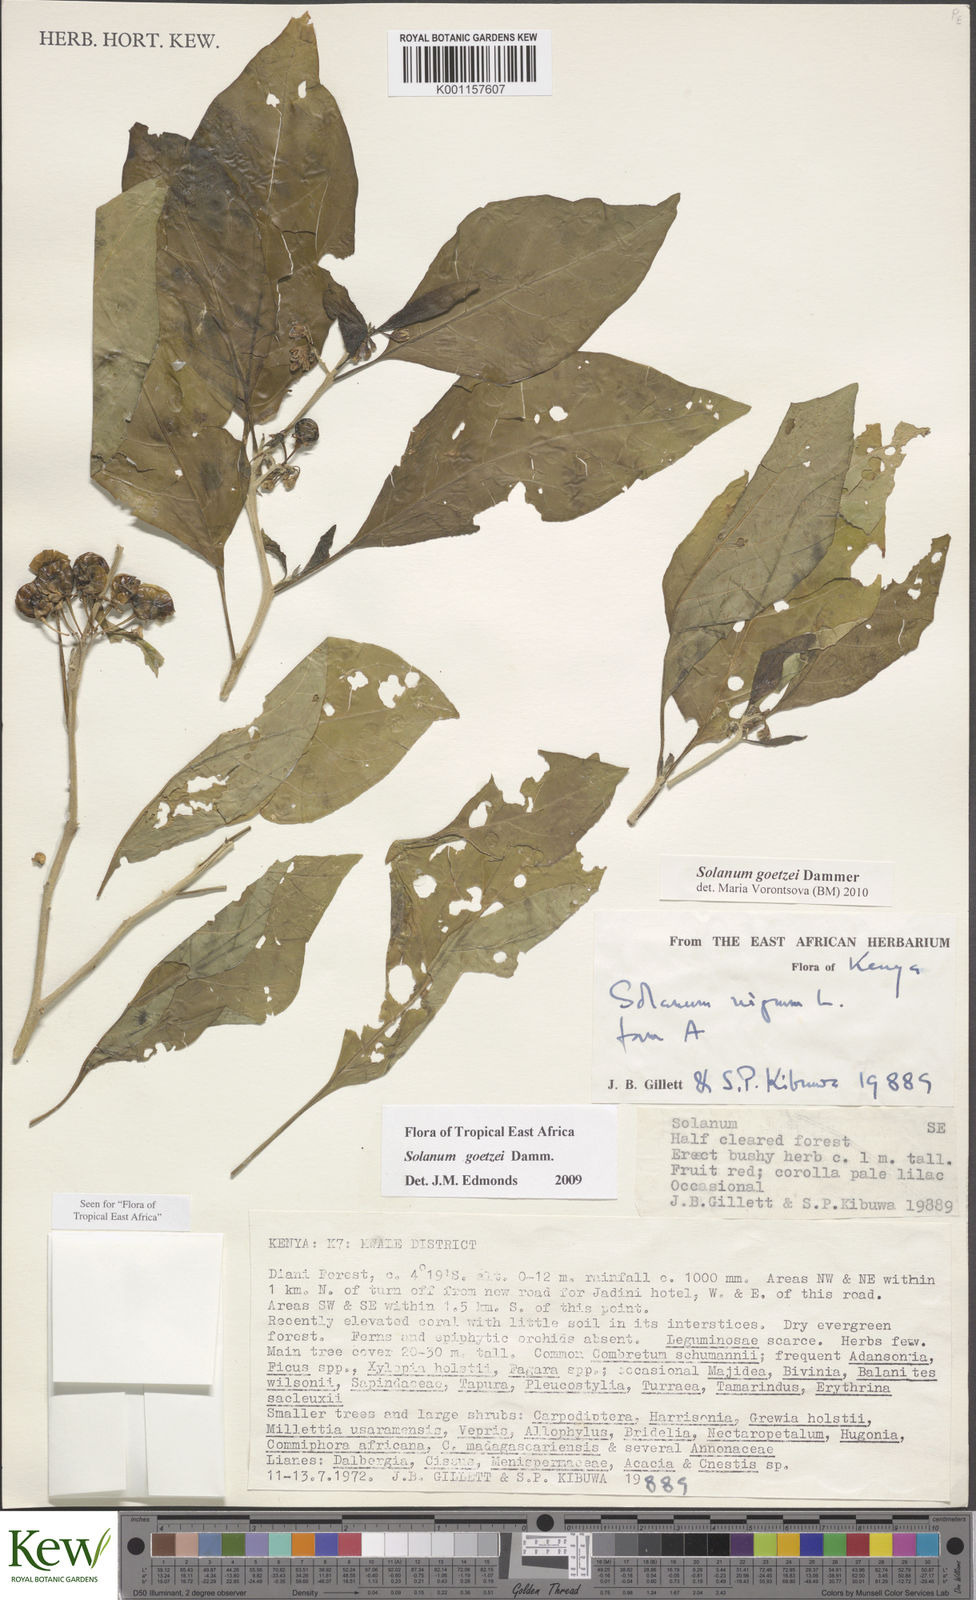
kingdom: Plantae
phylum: Tracheophyta
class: Magnoliopsida
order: Solanales
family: Solanaceae
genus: Solanum
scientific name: Solanum goetzei
